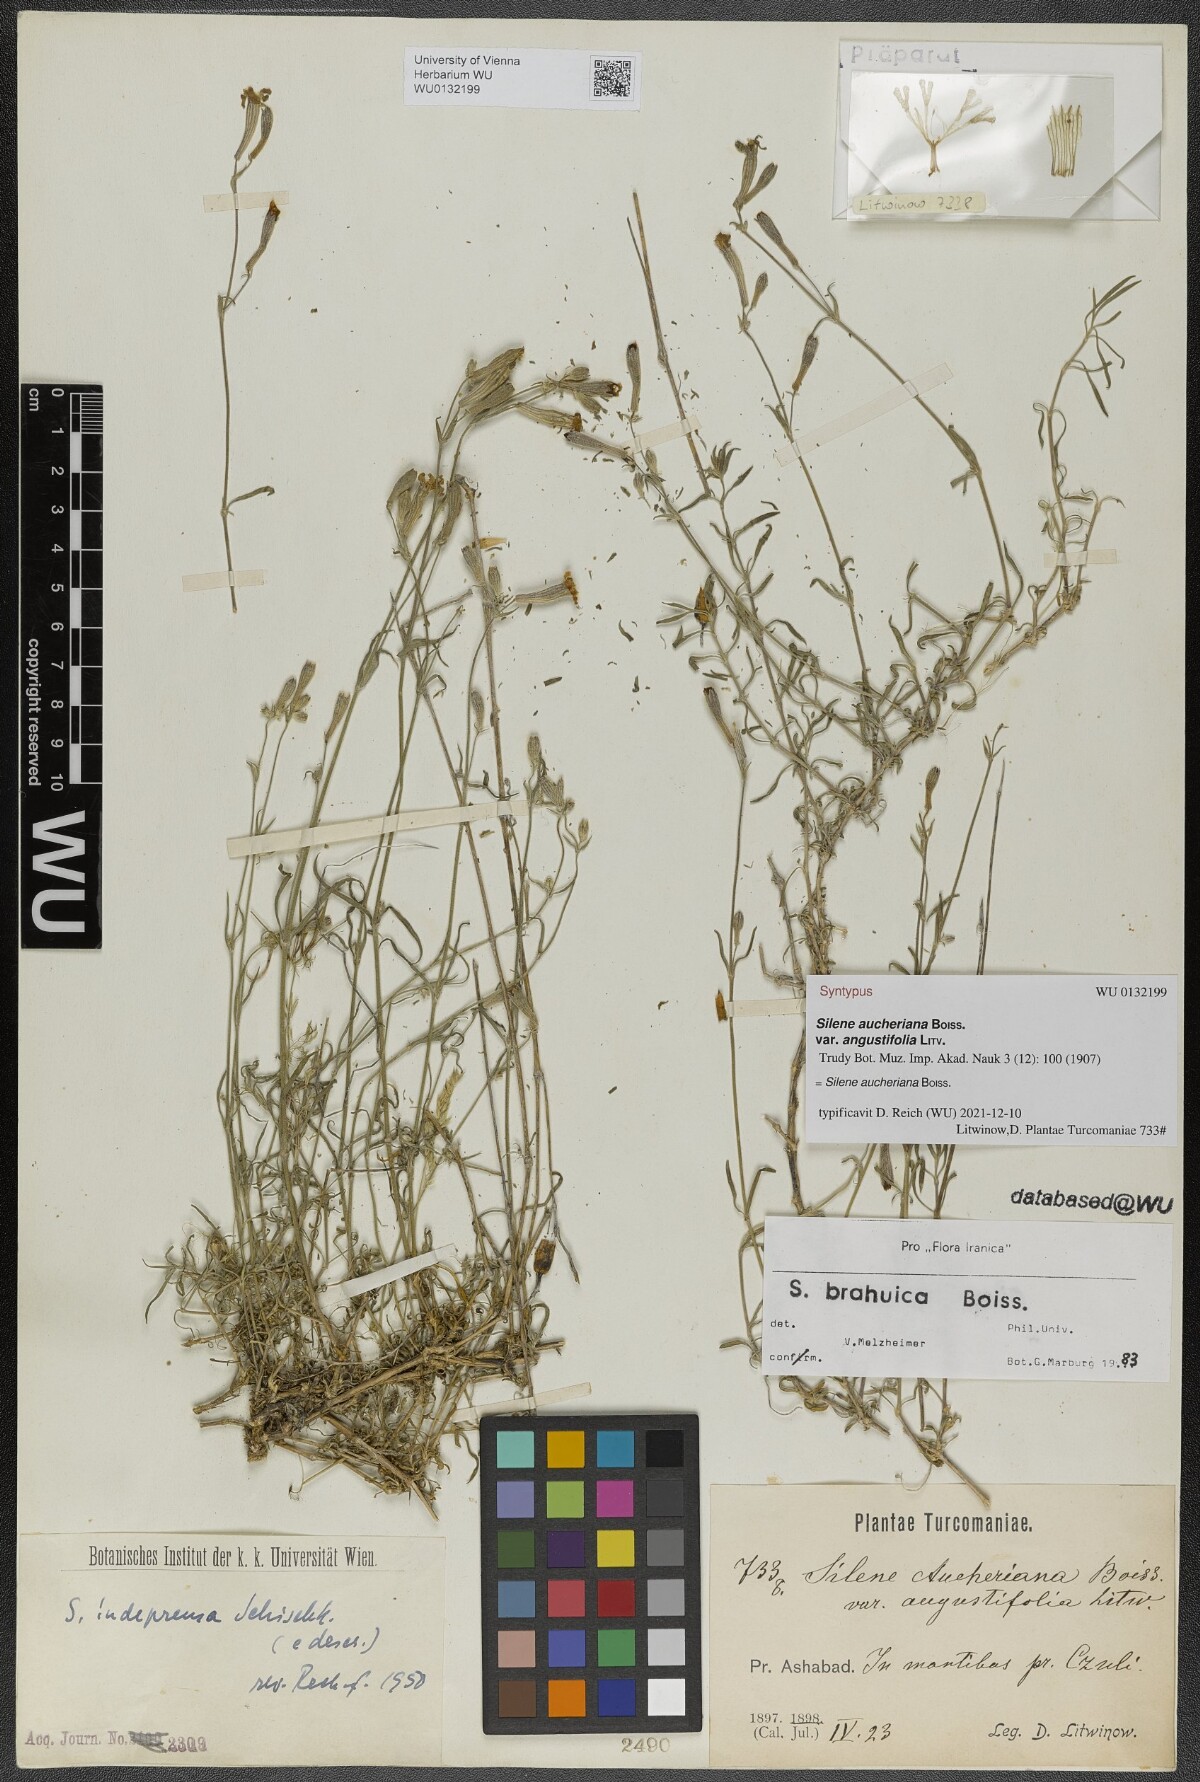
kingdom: Plantae
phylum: Tracheophyta
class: Magnoliopsida
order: Caryophyllales
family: Caryophyllaceae
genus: Silene
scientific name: Silene aucheriana
